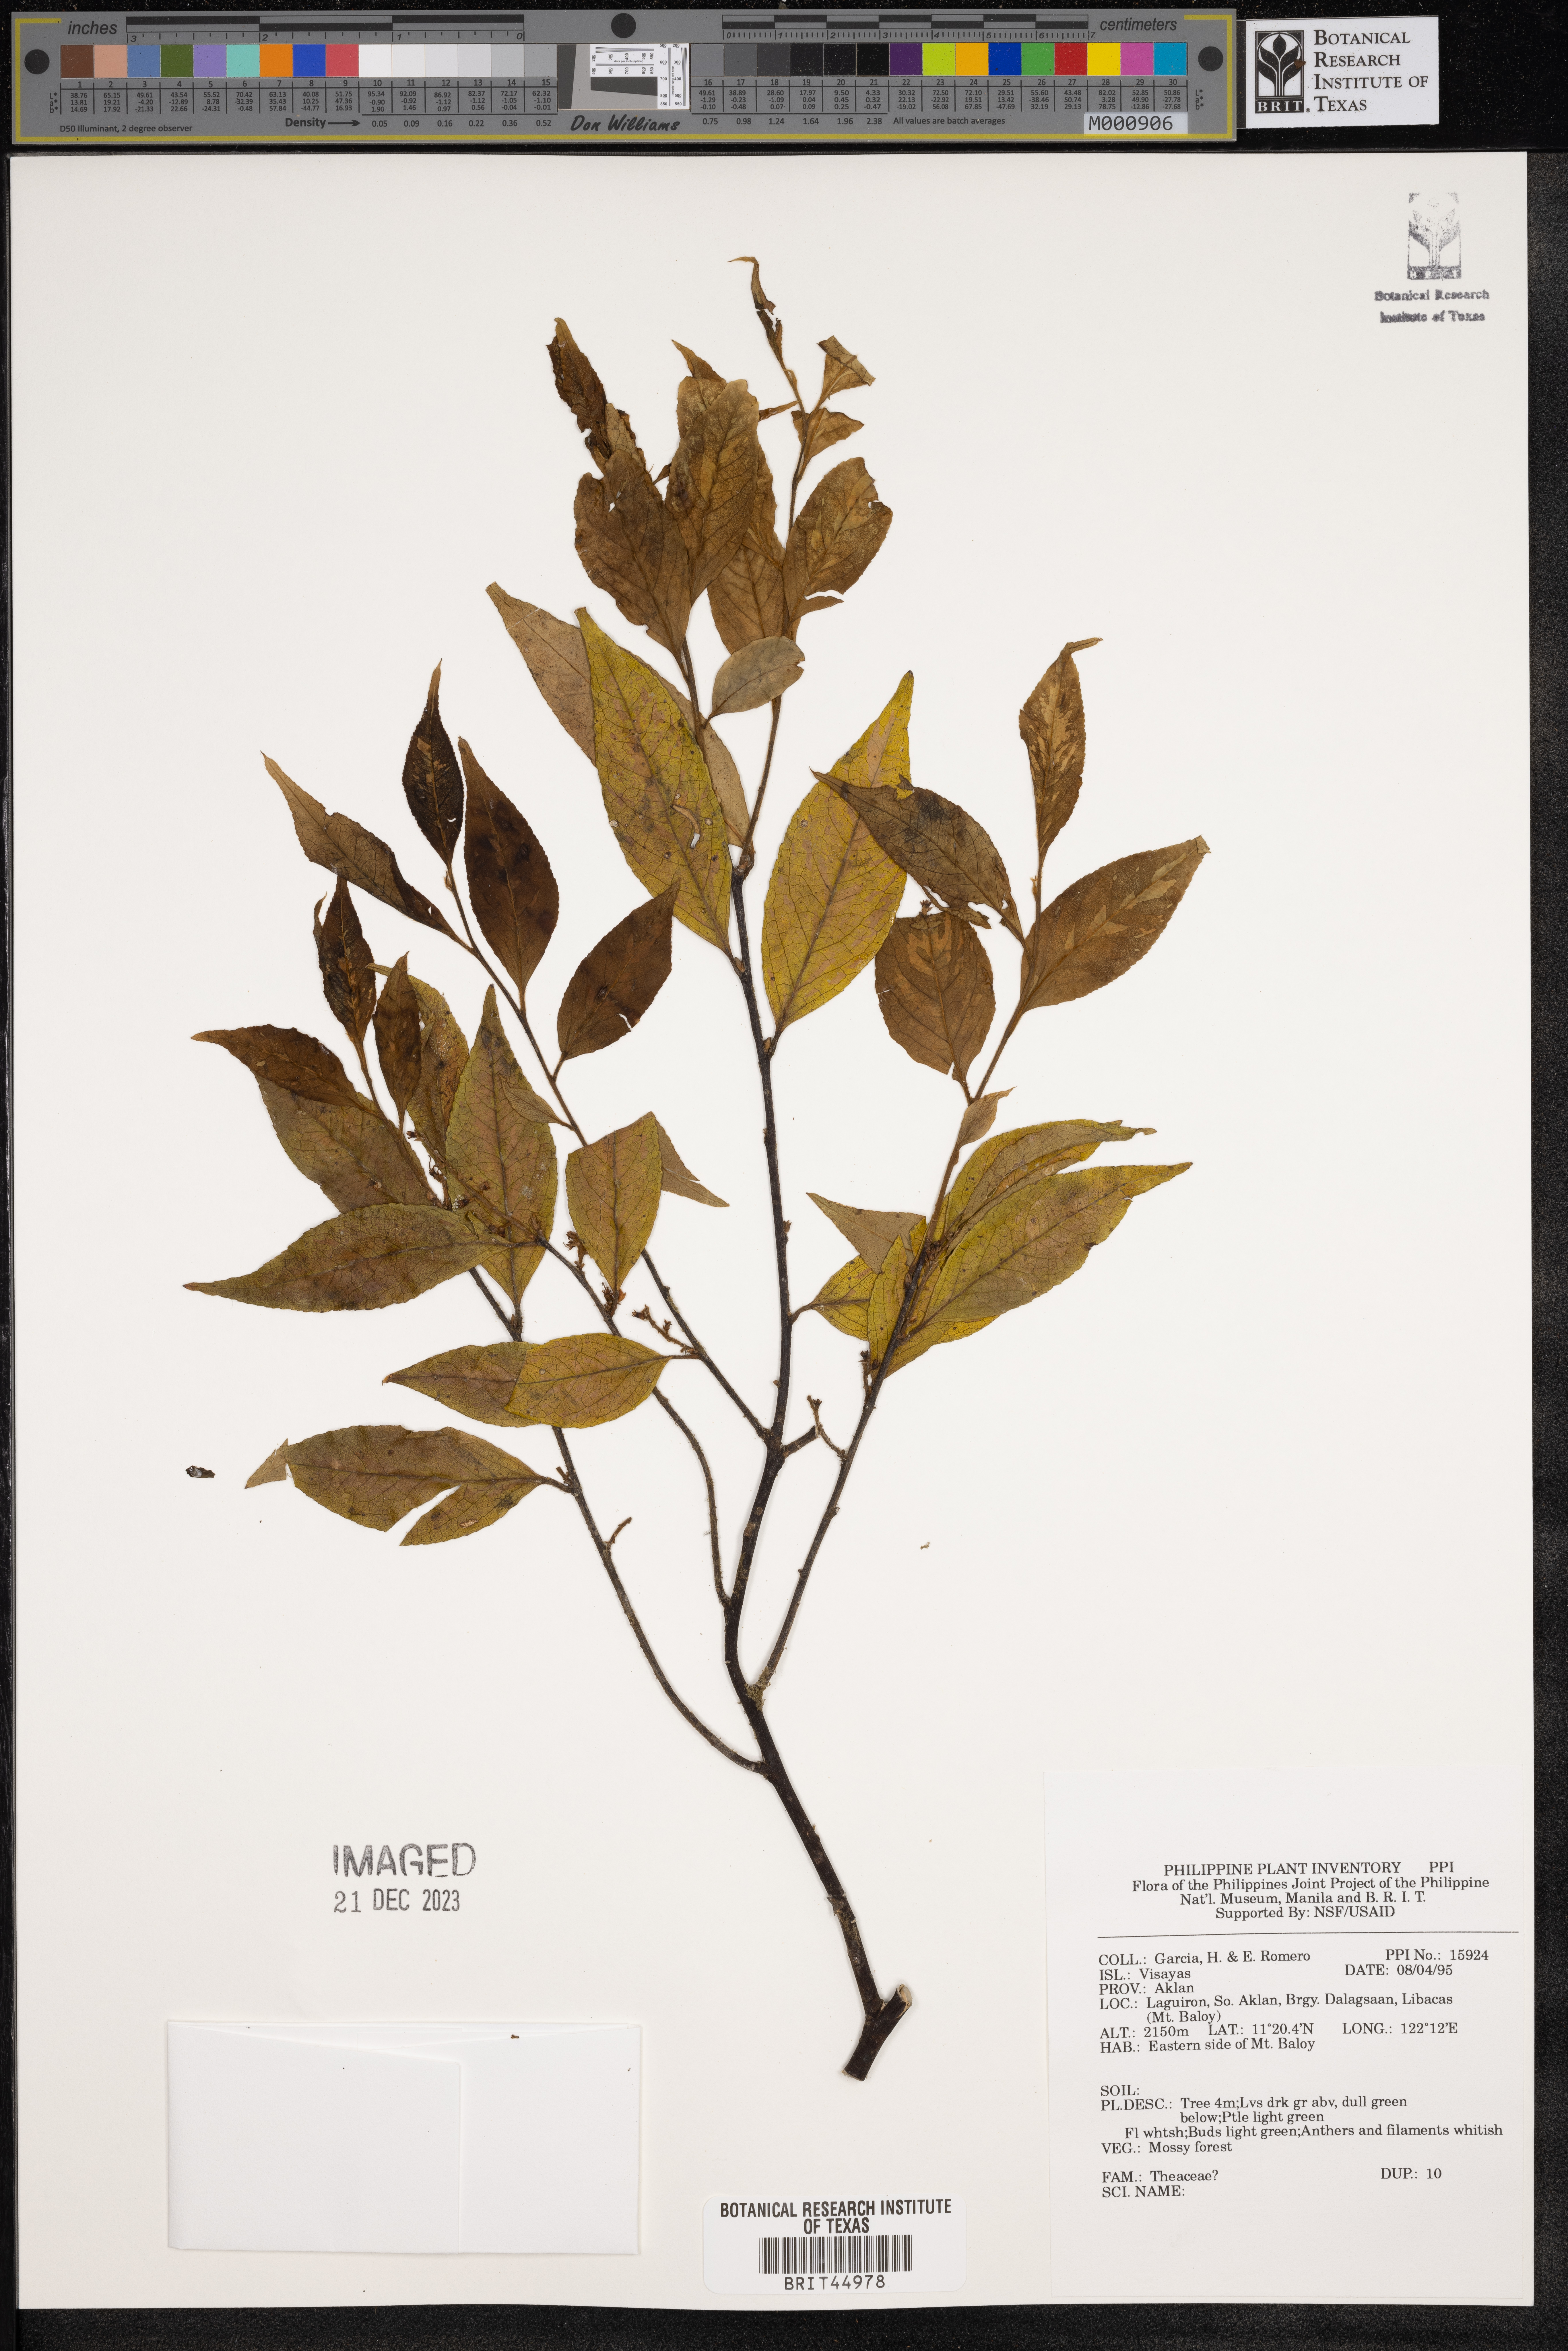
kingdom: Plantae
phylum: Tracheophyta
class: Magnoliopsida
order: Ericales
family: Theaceae
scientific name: Theaceae
